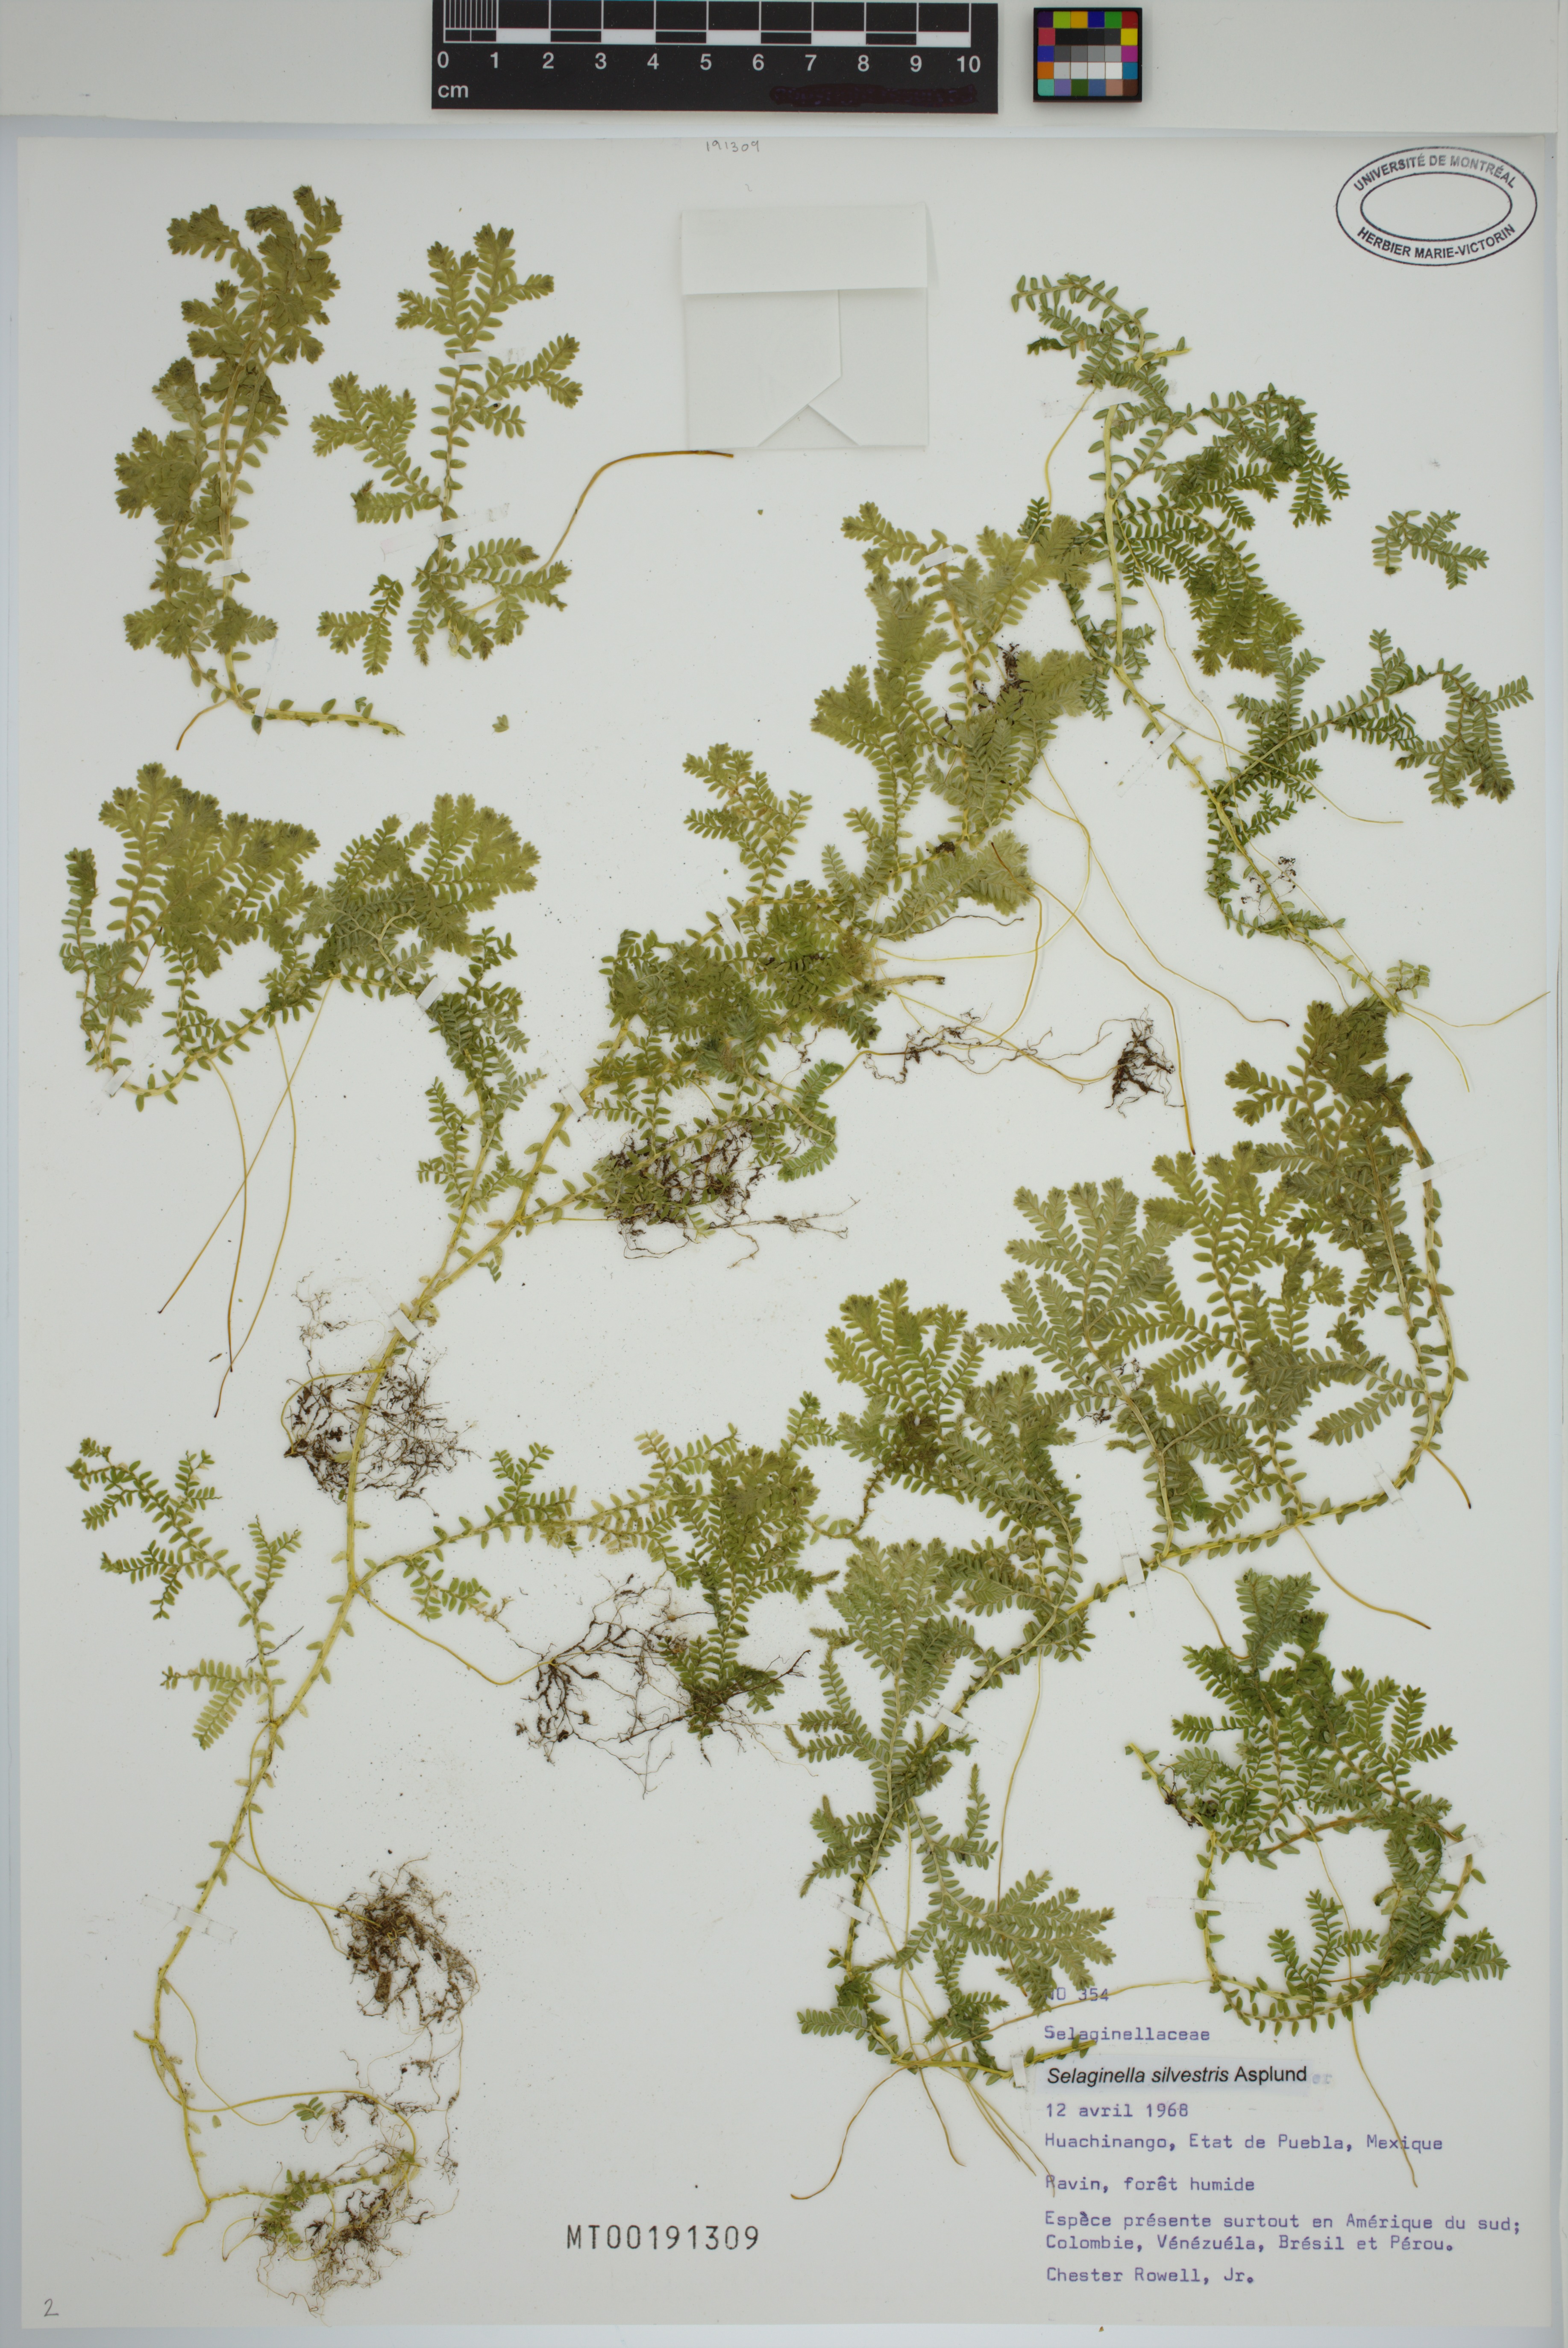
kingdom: Plantae
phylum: Tracheophyta
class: Lycopodiopsida
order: Selaginellales
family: Selaginellaceae
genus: Selaginella
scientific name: Selaginella silvestris
